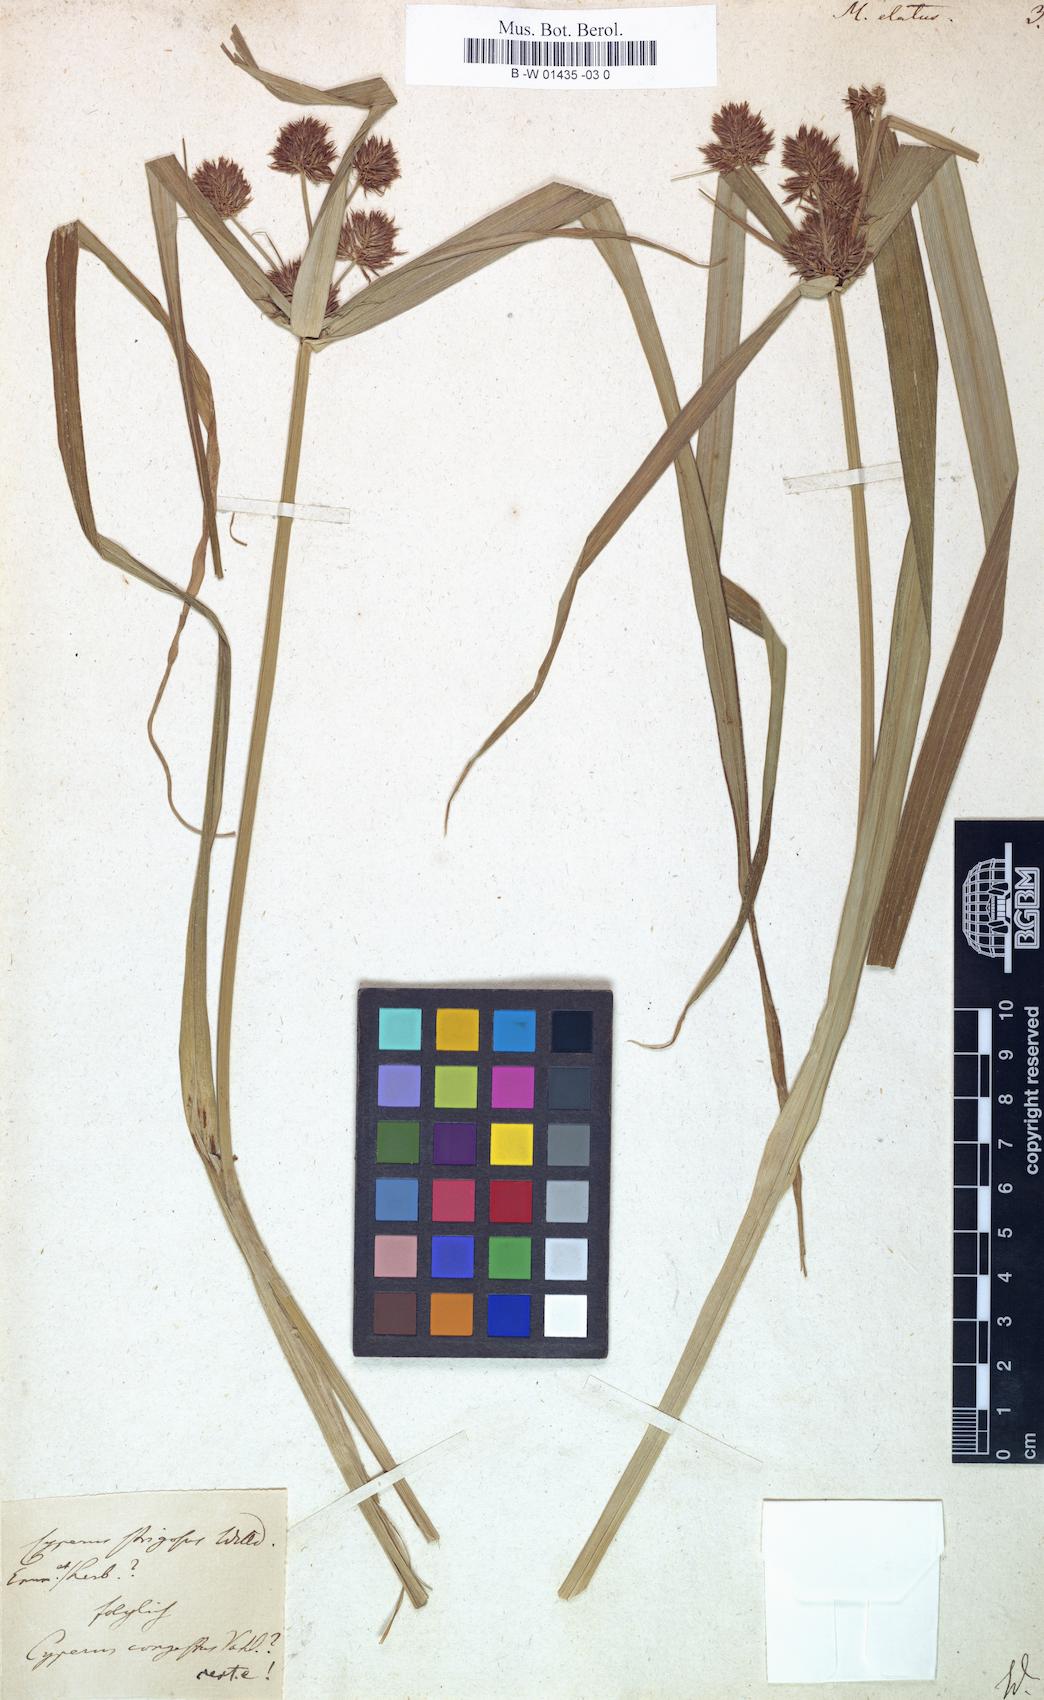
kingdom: Plantae
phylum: Tracheophyta
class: Liliopsida
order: Poales
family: Cyperaceae
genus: Cyperus
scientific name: Cyperus coriifolius
